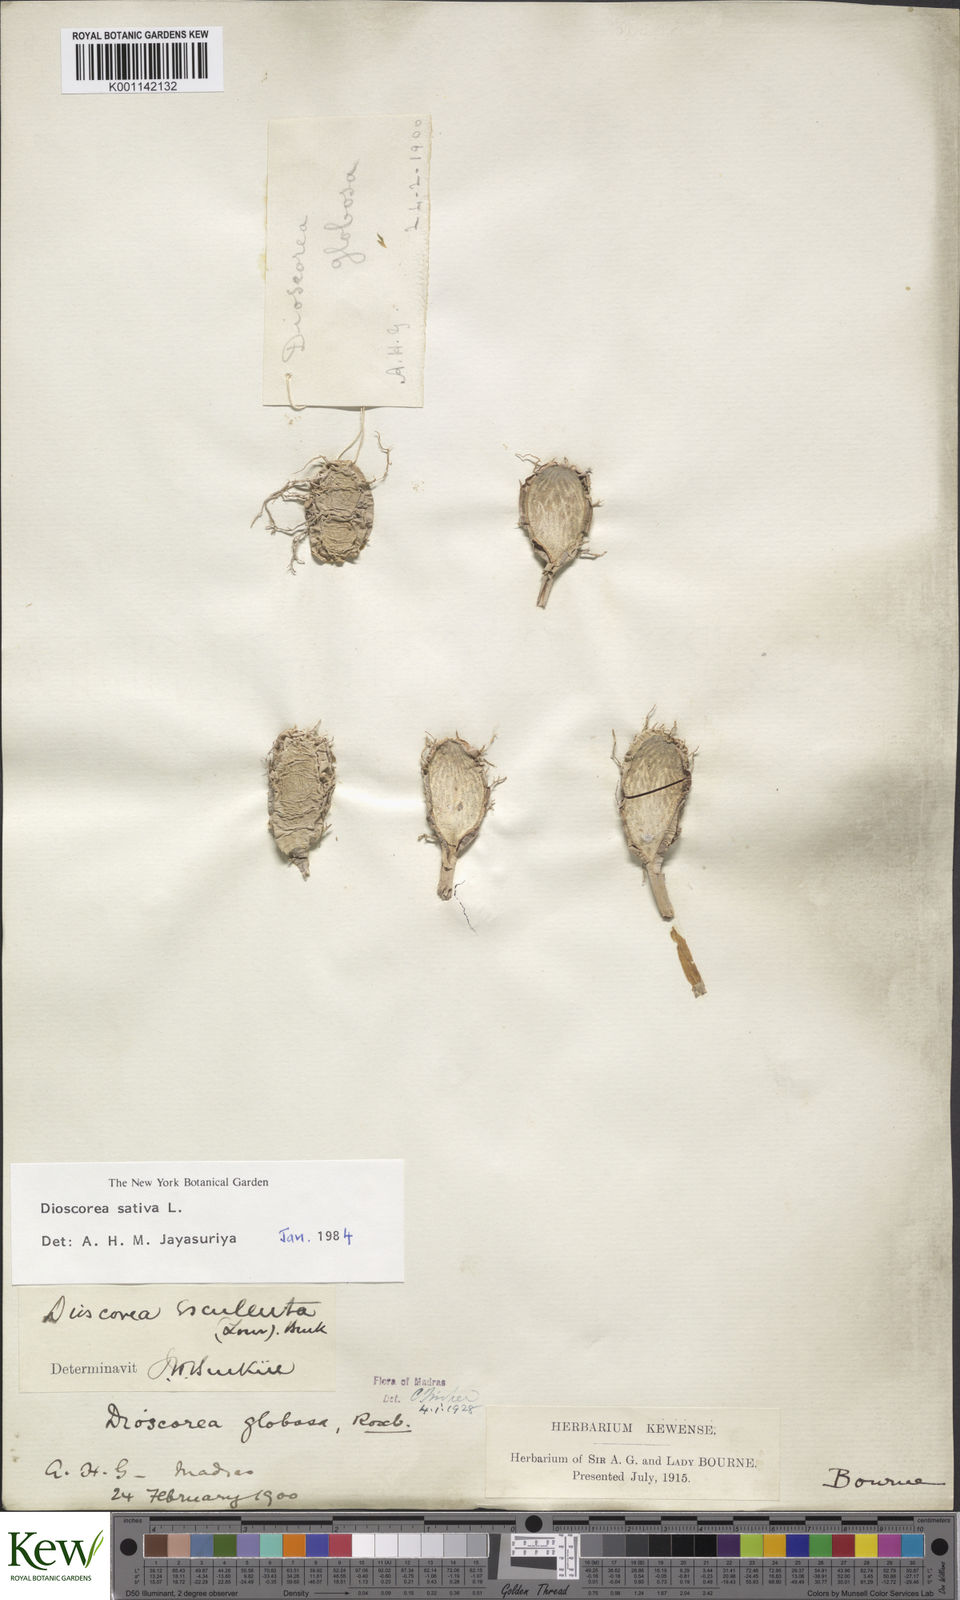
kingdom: Plantae
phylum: Tracheophyta
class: Liliopsida
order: Dioscoreales
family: Dioscoreaceae
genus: Dioscorea
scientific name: Dioscorea esculenta
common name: Chinese yam
